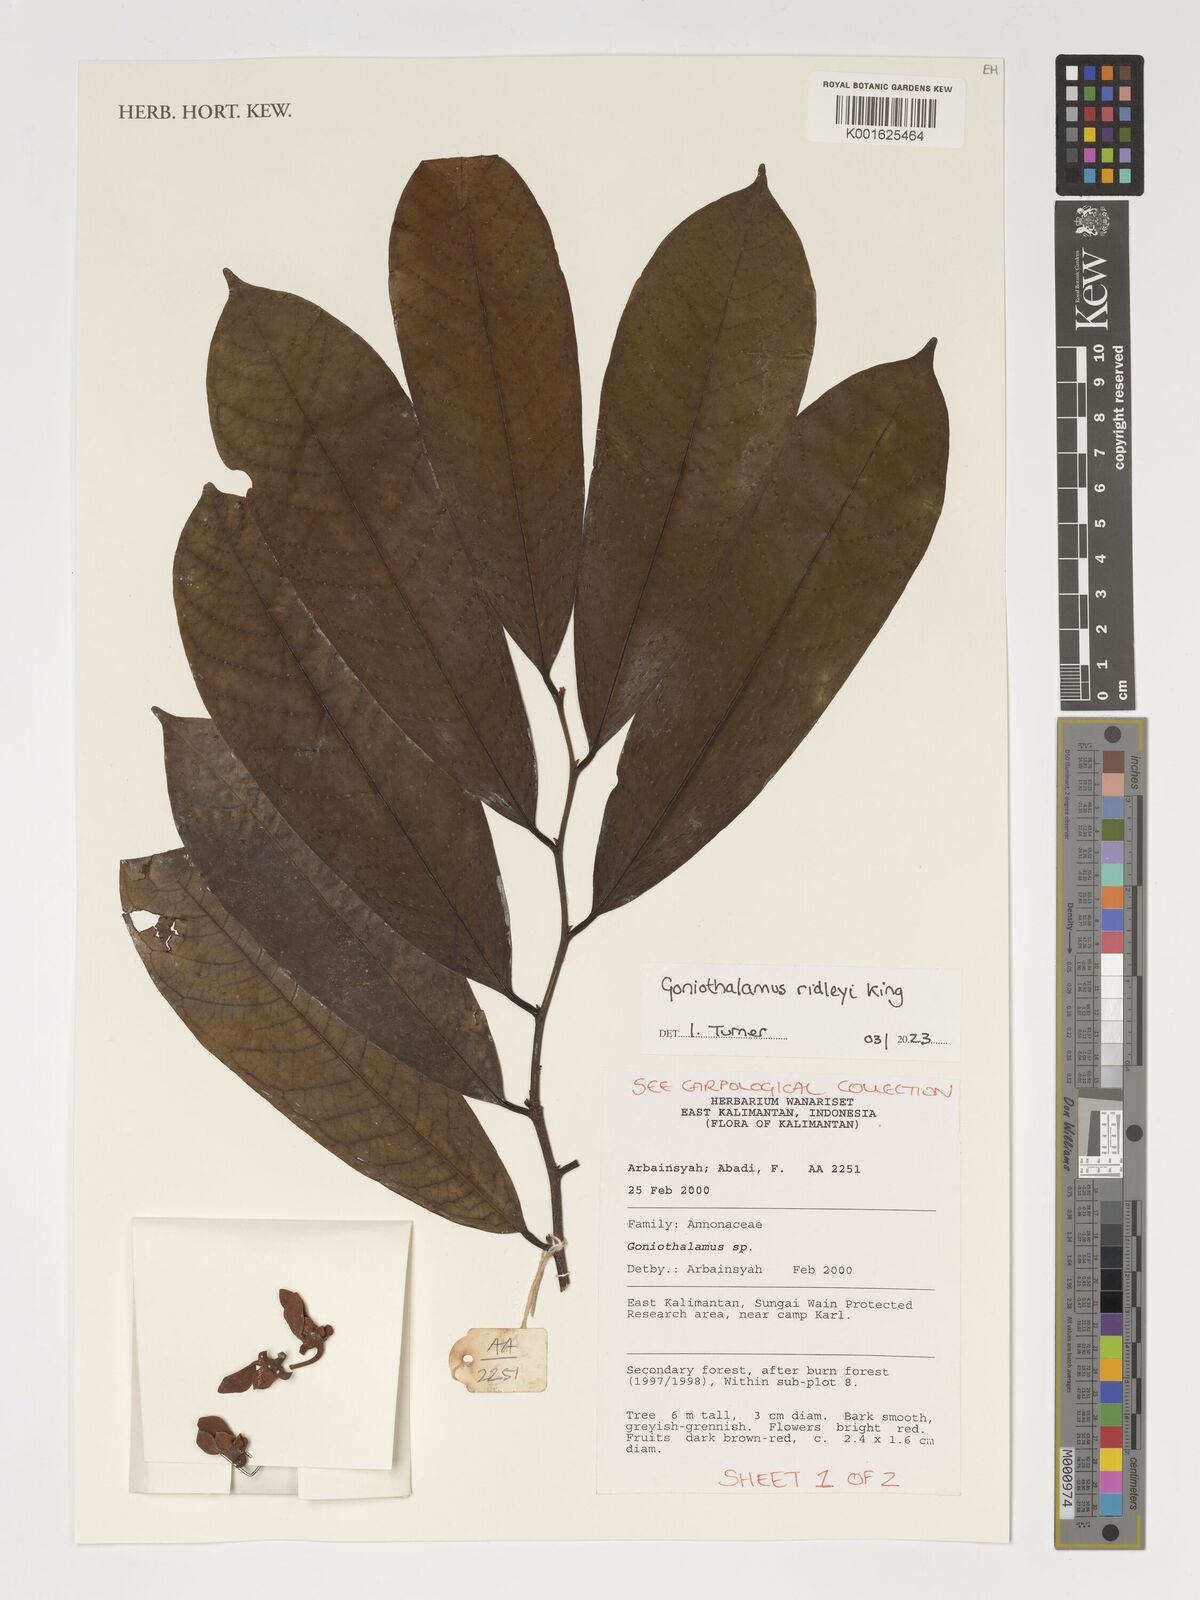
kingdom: Plantae
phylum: Tracheophyta
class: Magnoliopsida
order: Magnoliales
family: Annonaceae
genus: Goniothalamus
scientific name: Goniothalamus ridleyi
